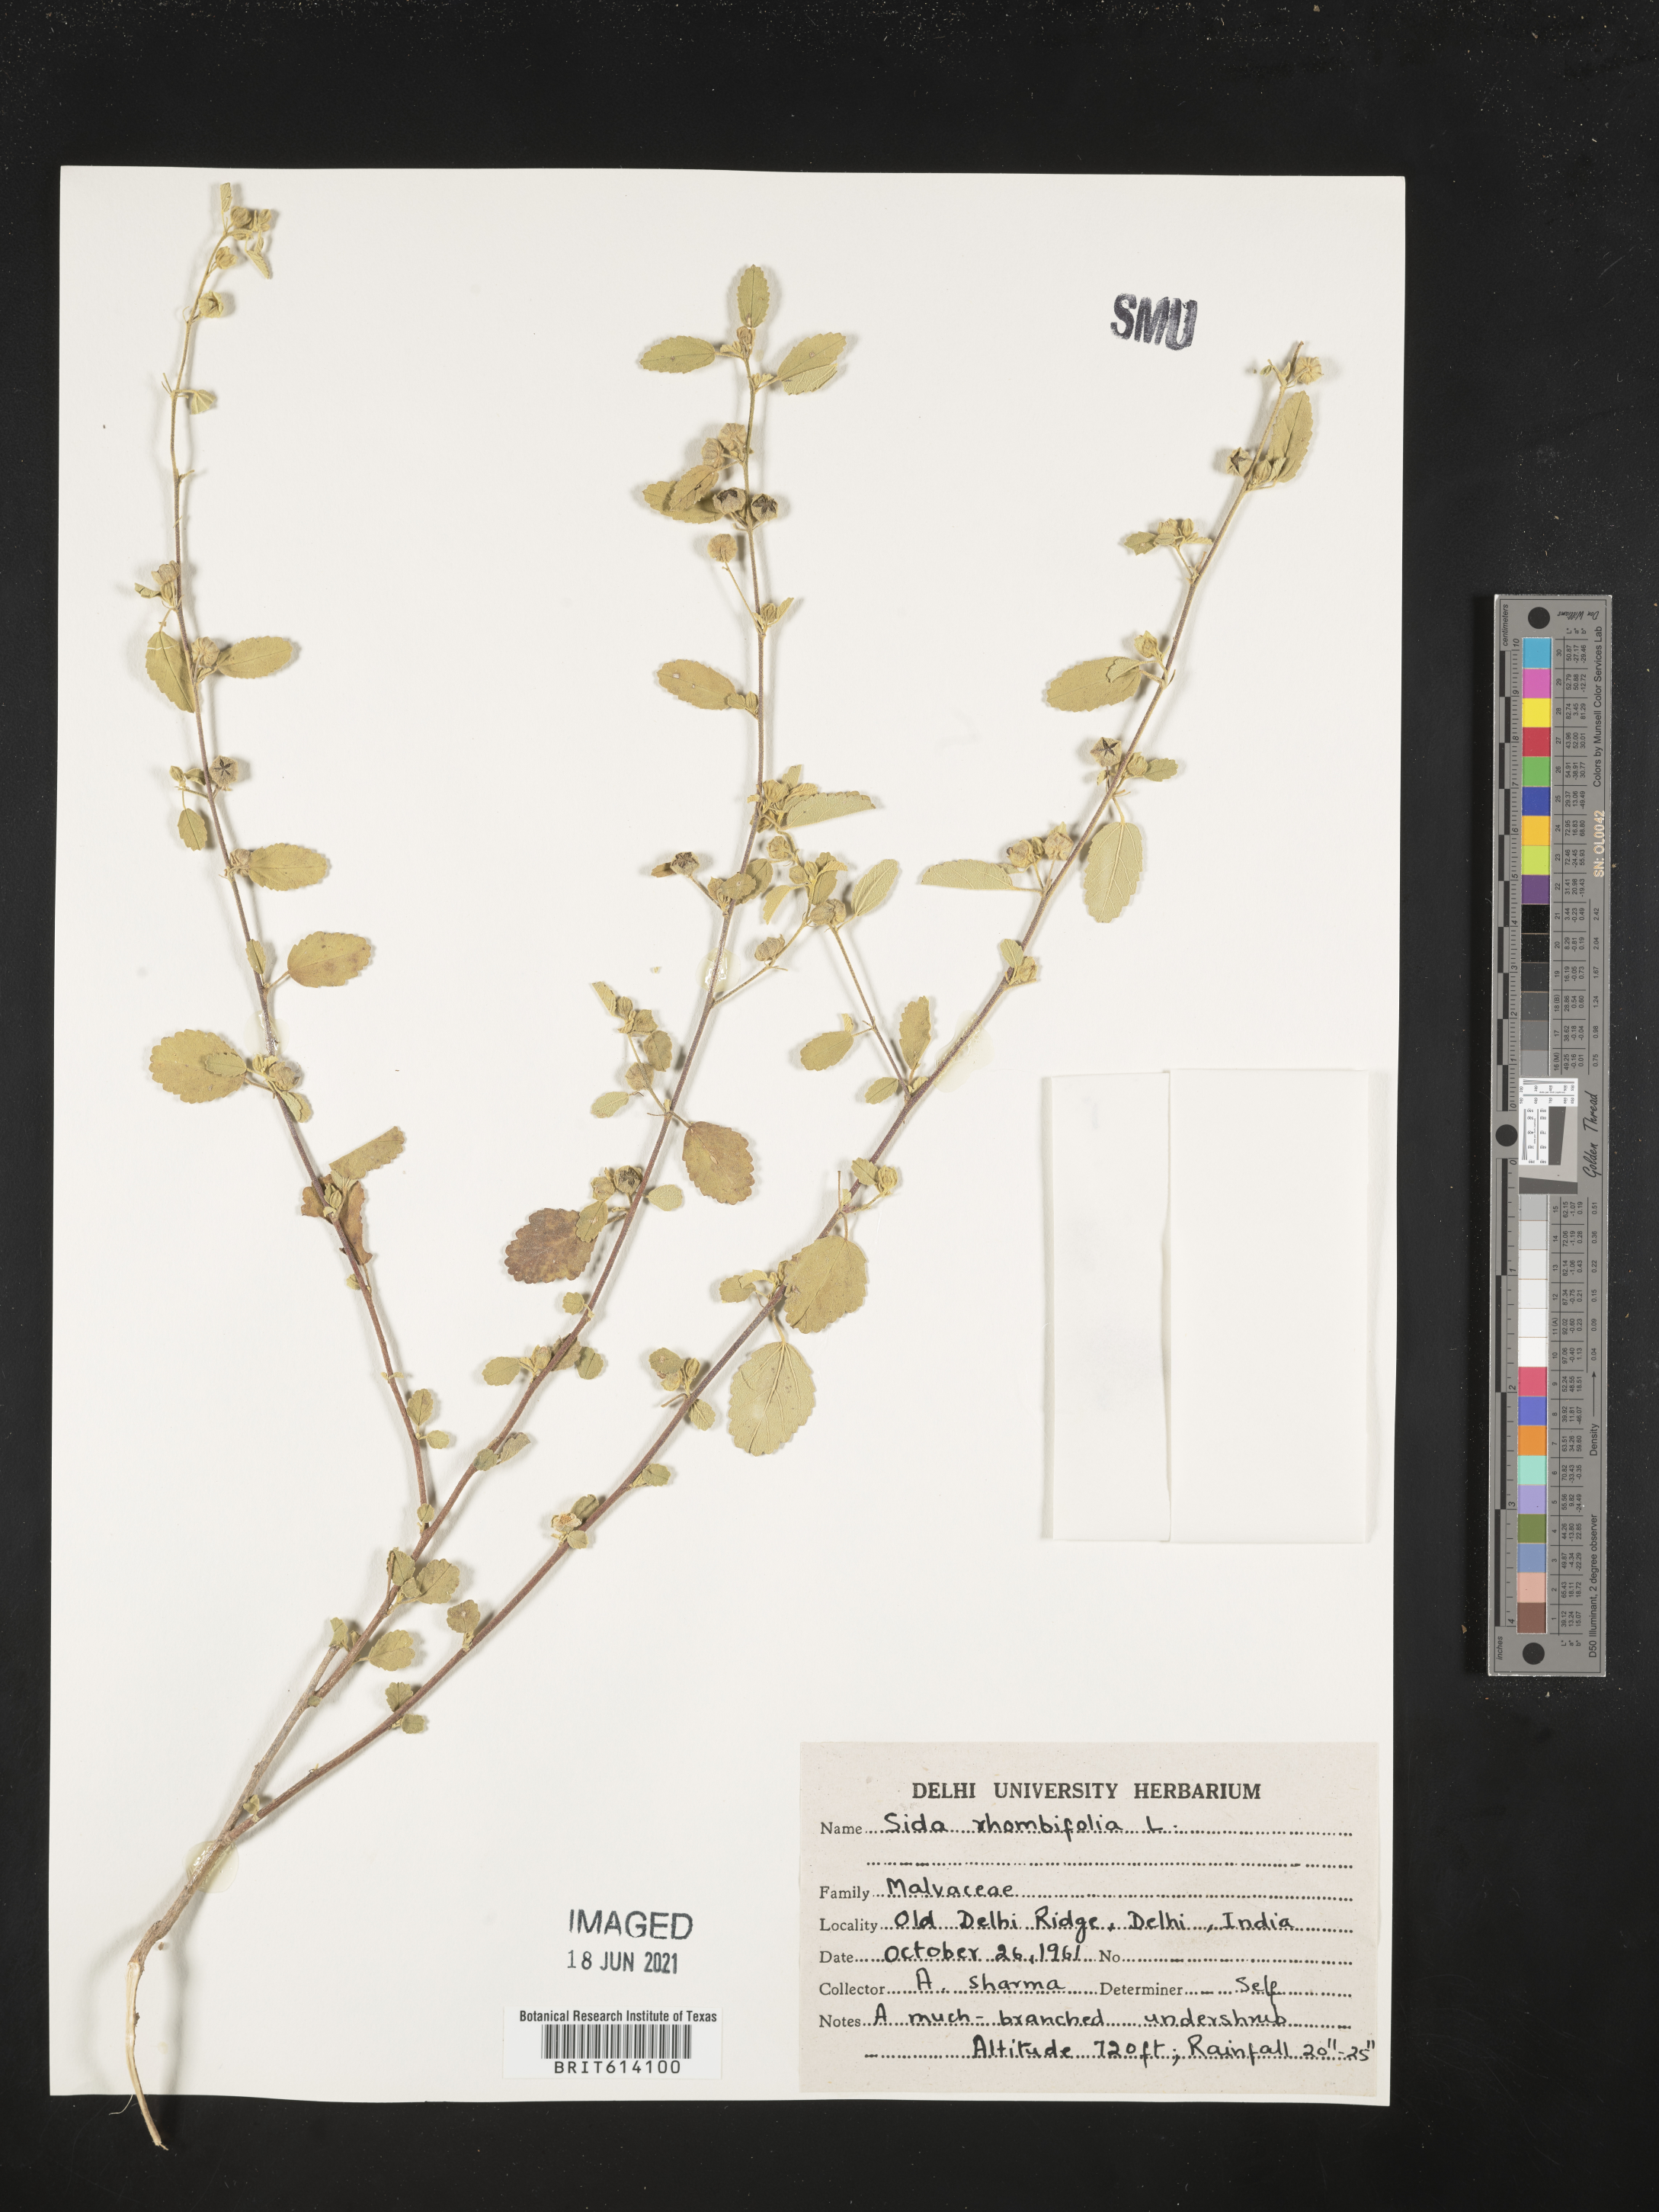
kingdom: Plantae
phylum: Tracheophyta
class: Magnoliopsida
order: Malvales
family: Malvaceae
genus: Sida
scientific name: Sida rhombifolia
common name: Queensland-hemp
